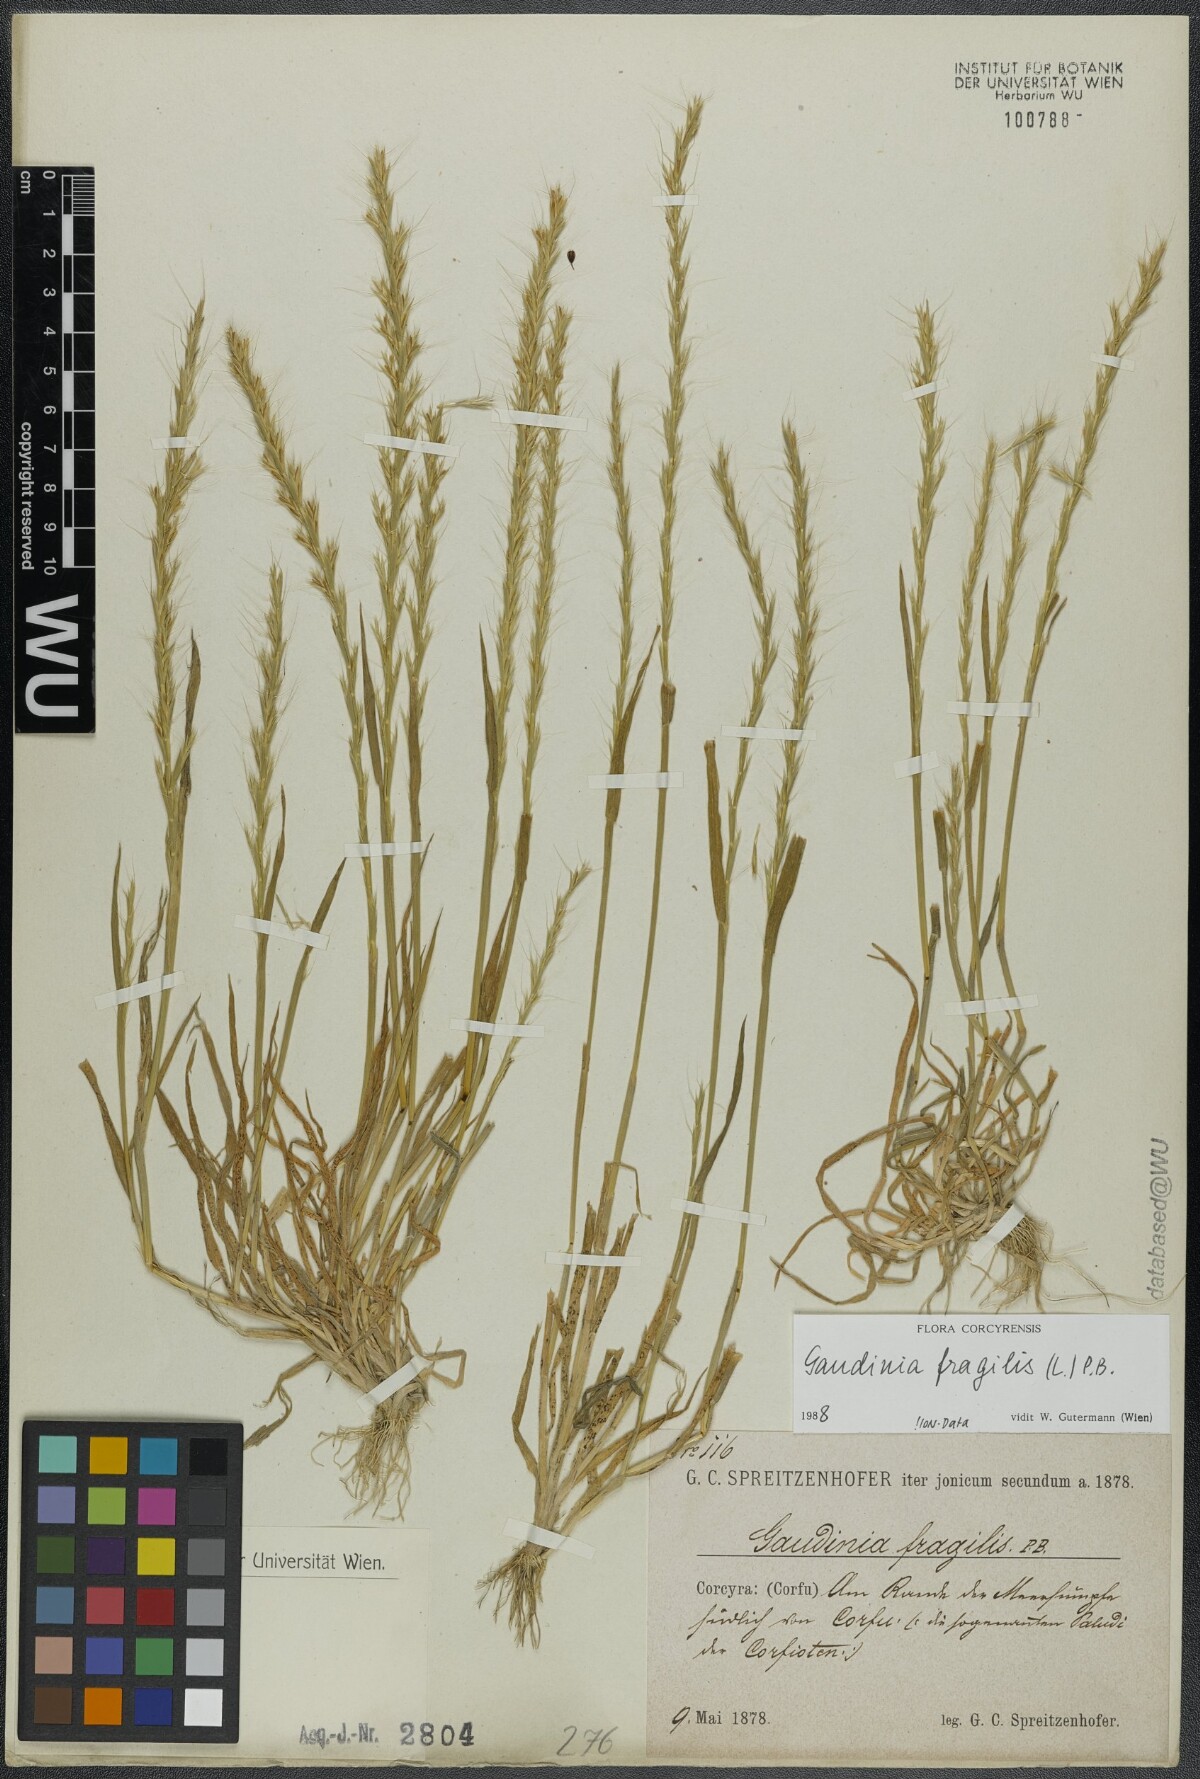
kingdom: Plantae
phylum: Tracheophyta
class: Liliopsida
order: Poales
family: Poaceae
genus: Gaudinia
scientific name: Gaudinia fragilis
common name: French oat-grass
